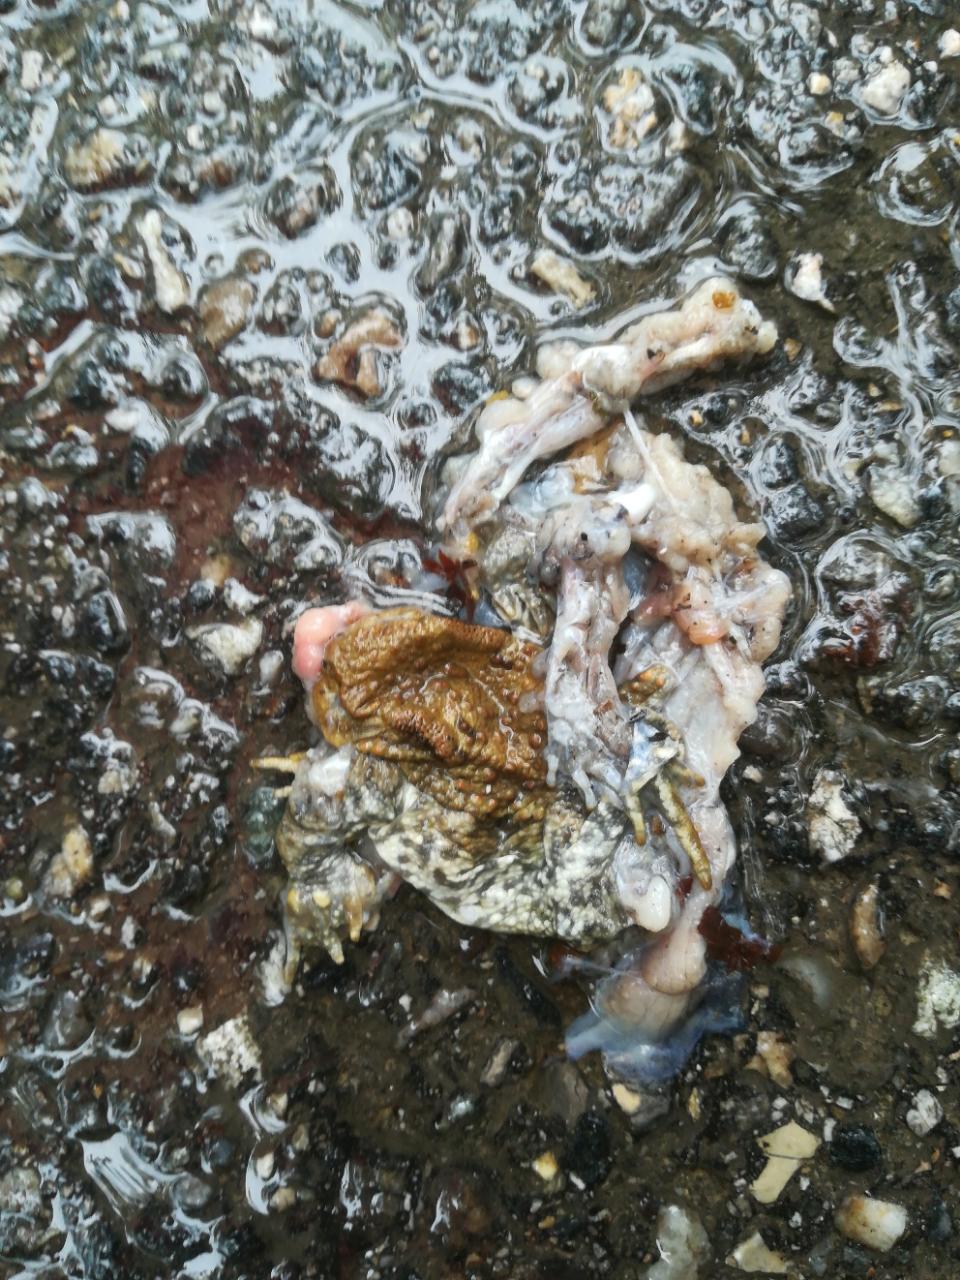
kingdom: Animalia
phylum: Chordata
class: Amphibia
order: Anura
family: Bufonidae
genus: Bufo
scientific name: Bufo bufo
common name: Common toad
